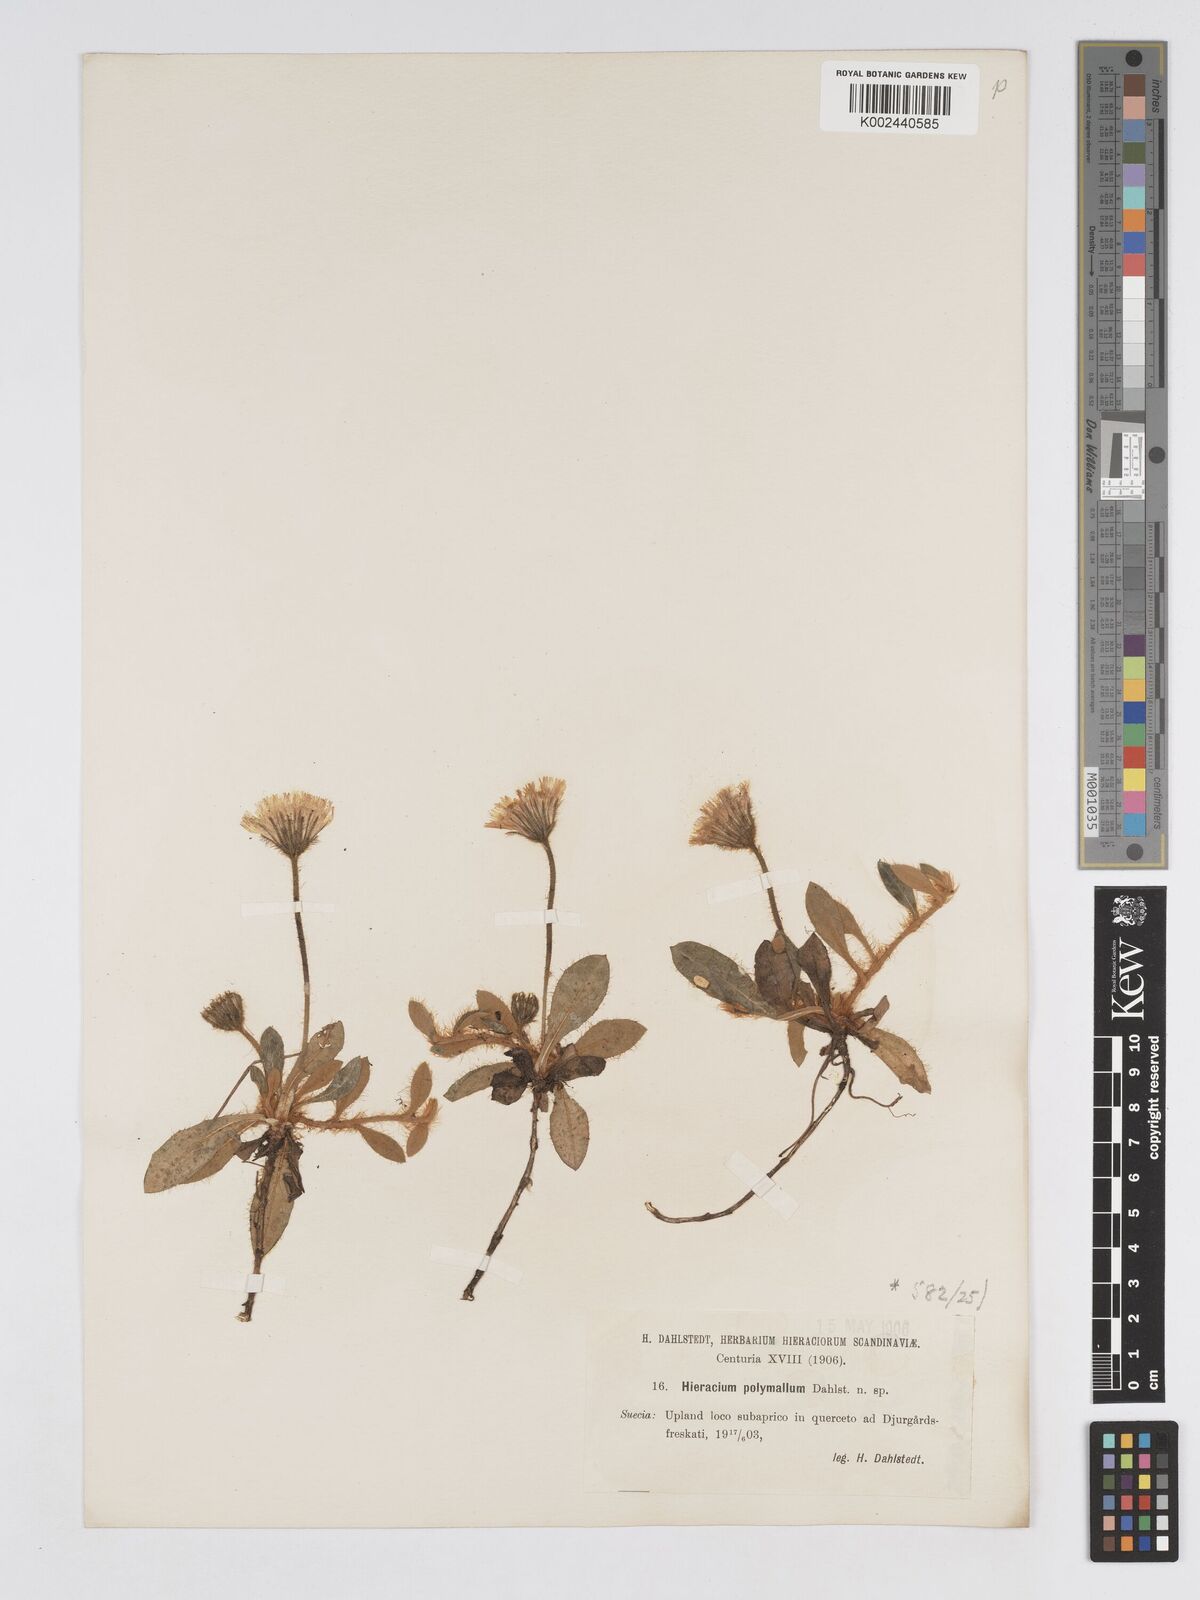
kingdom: Plantae
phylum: Tracheophyta
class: Magnoliopsida
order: Asterales
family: Asteraceae
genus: Pilosella
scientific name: Pilosella longisquama
